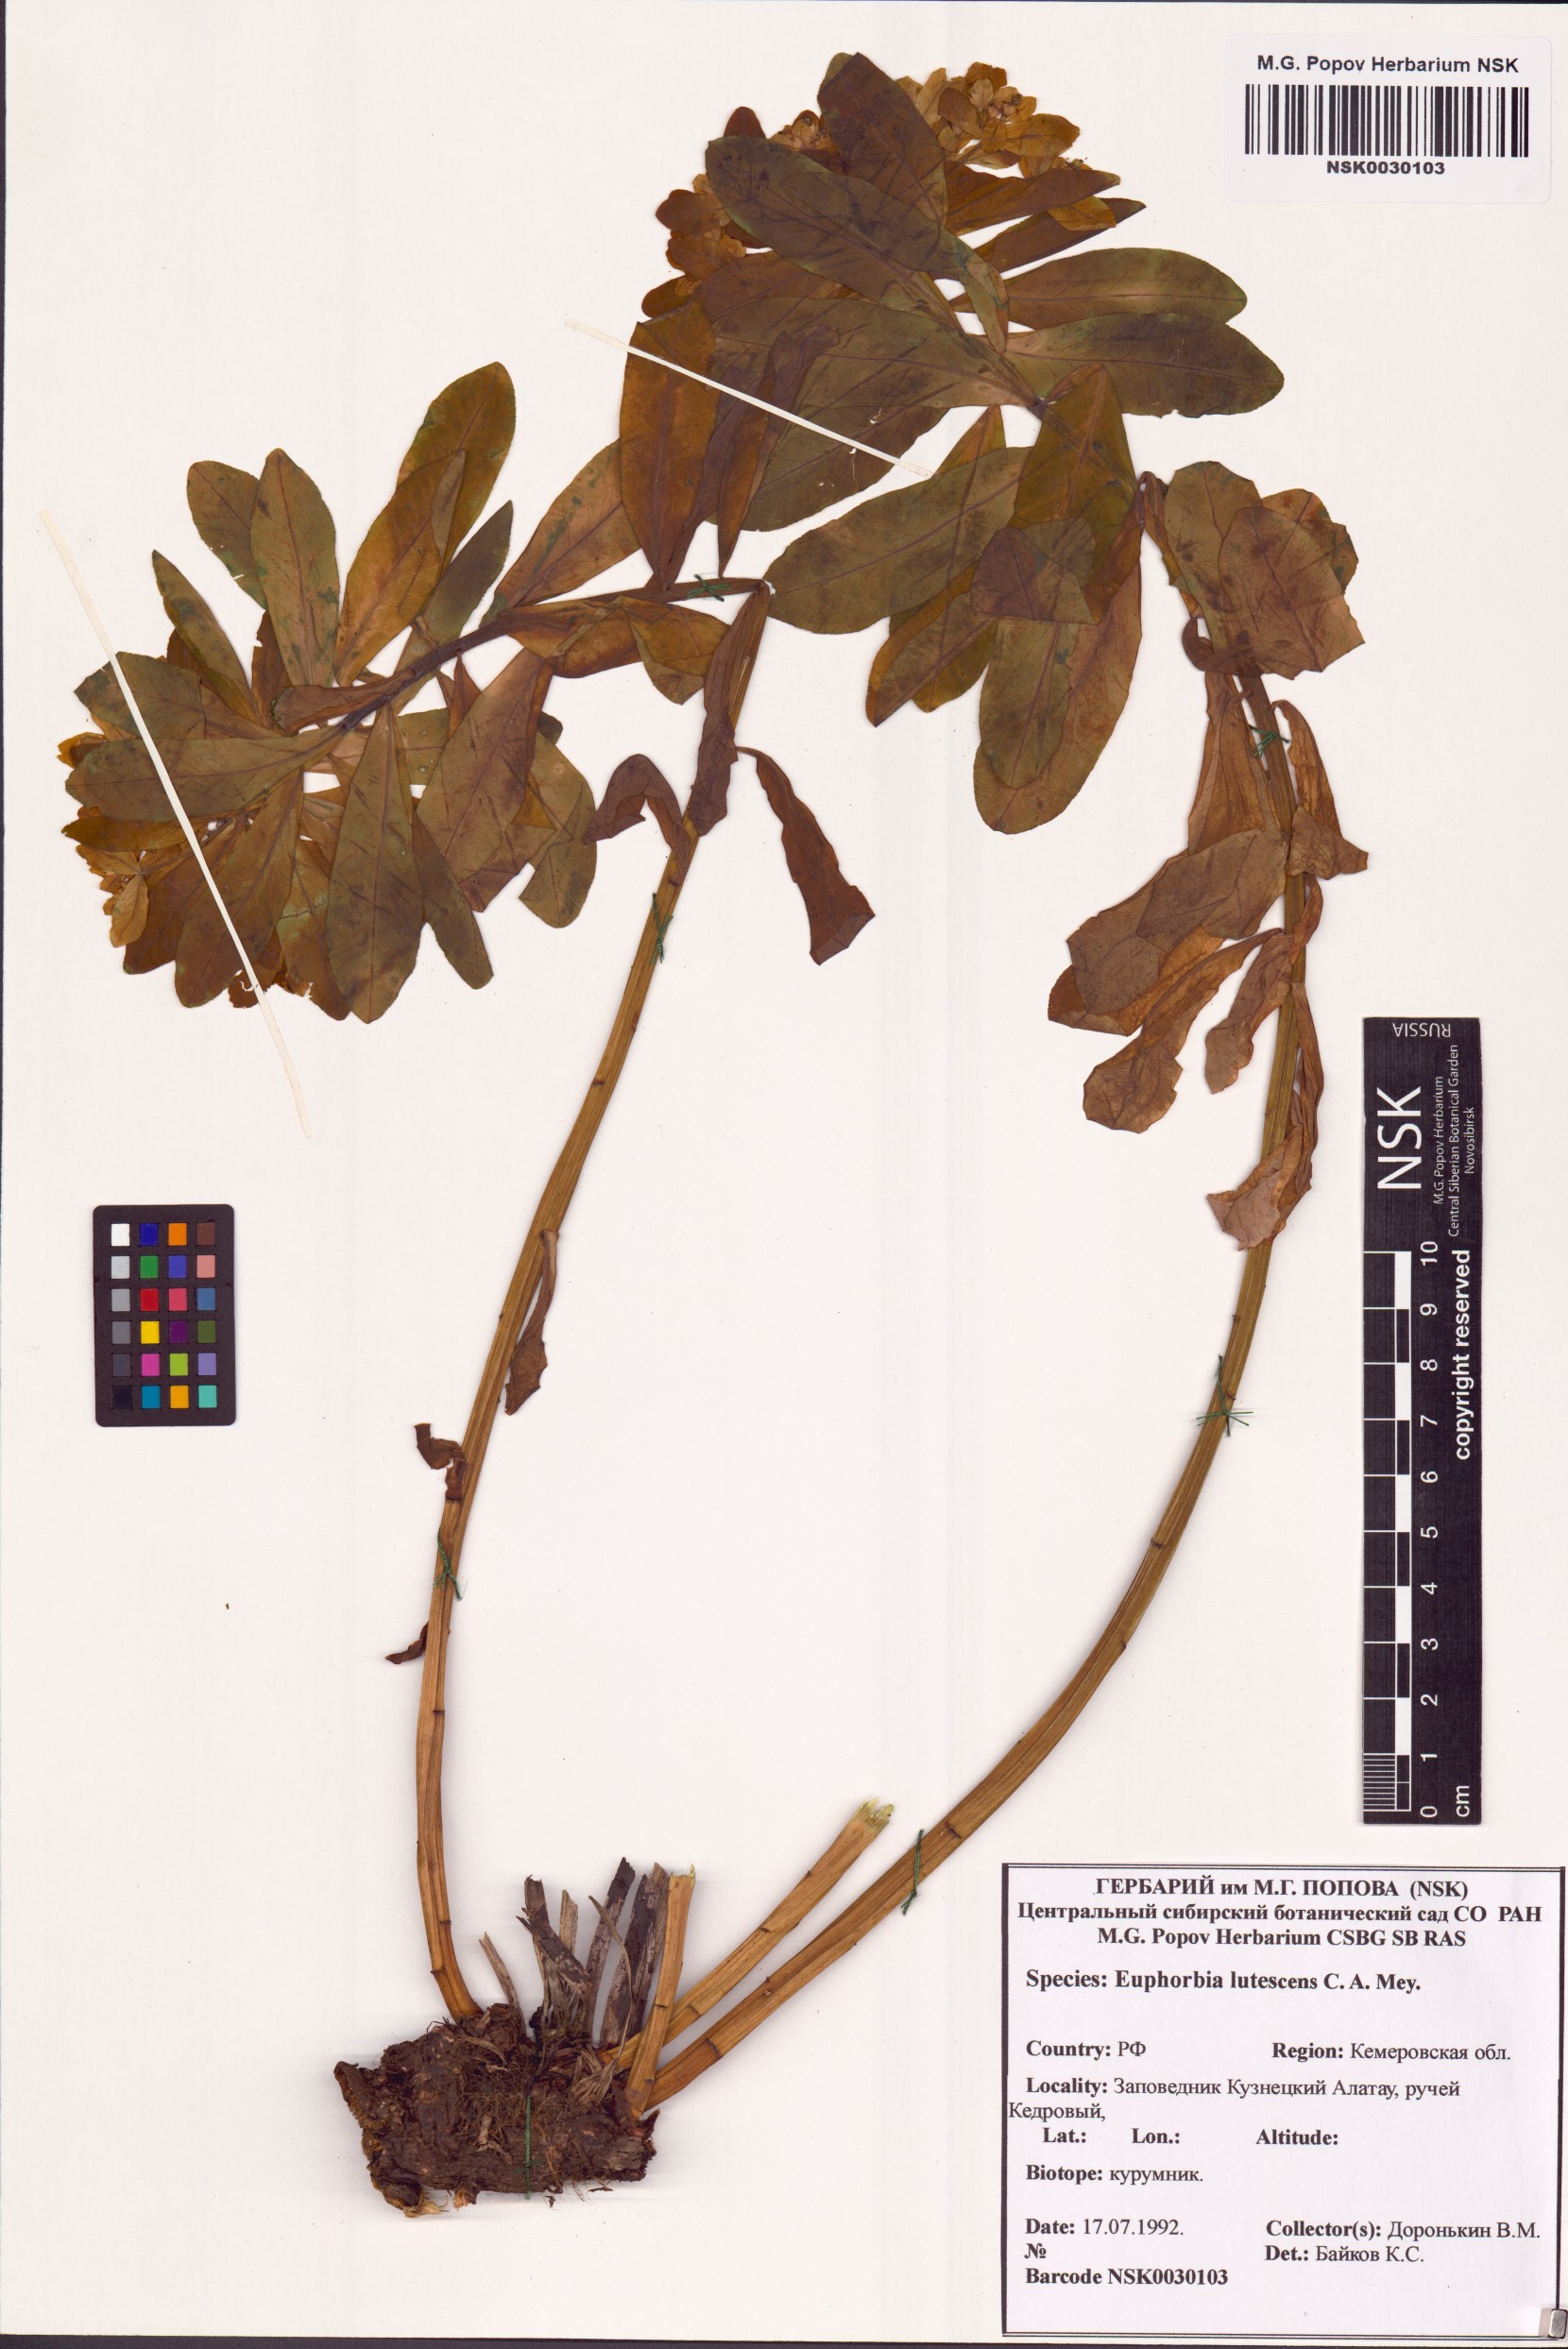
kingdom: Plantae
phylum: Tracheophyta
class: Magnoliopsida
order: Malpighiales
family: Euphorbiaceae
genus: Euphorbia
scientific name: Euphorbia pilosa
